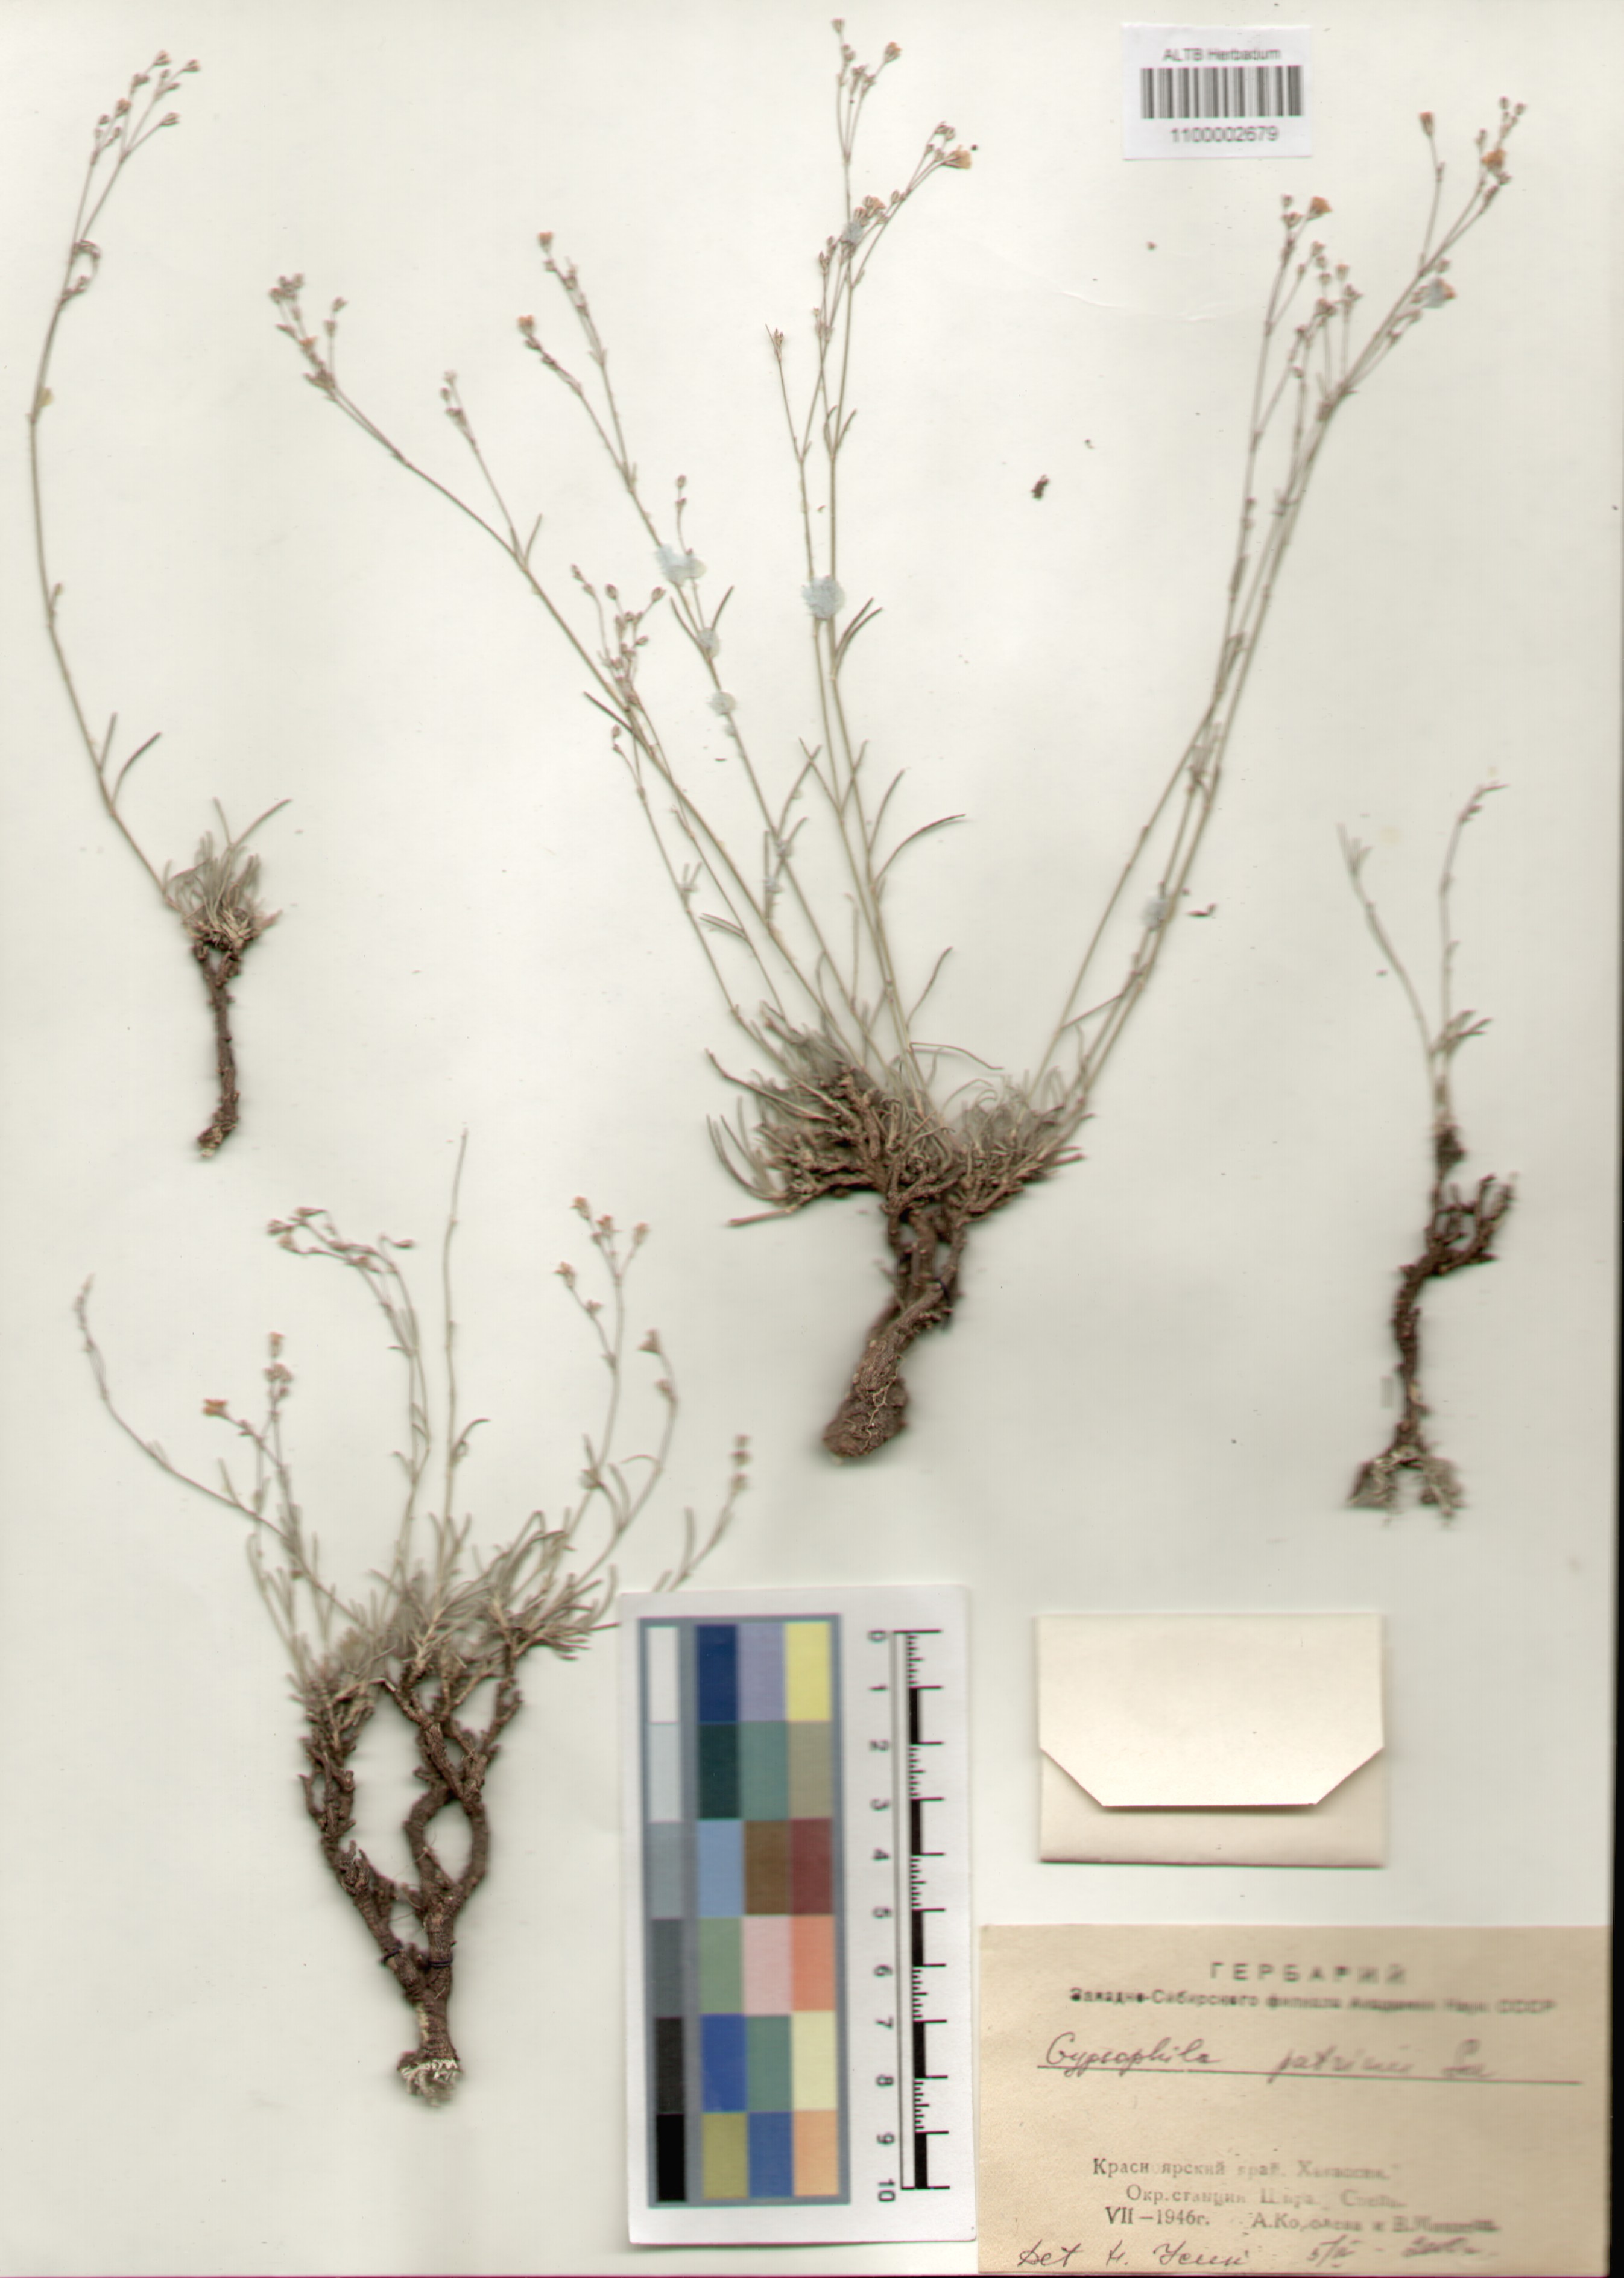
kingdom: Plantae
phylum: Tracheophyta
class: Magnoliopsida
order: Caryophyllales
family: Caryophyllaceae
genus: Gypsophila
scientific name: Gypsophila patrinii
